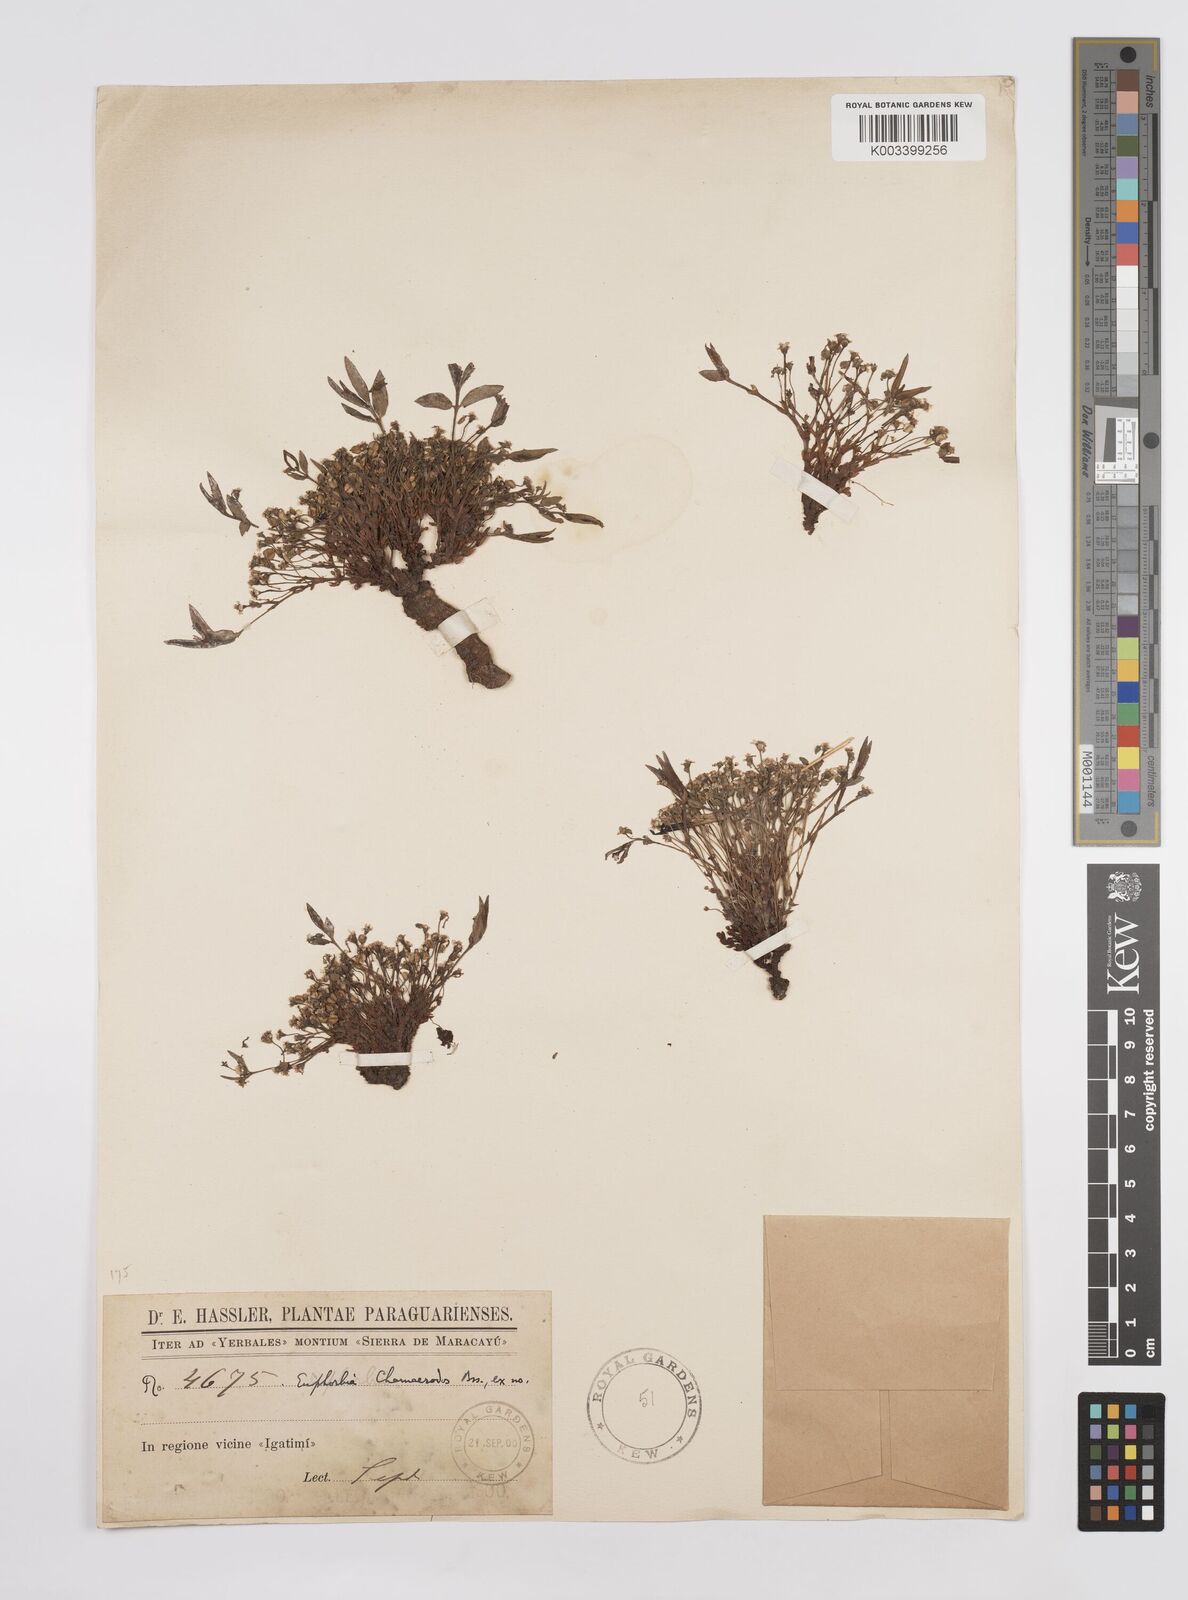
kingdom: Plantae
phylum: Tracheophyta
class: Magnoliopsida
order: Malpighiales
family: Euphorbiaceae
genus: Euphorbia
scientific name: Euphorbia chamaerrhodos
